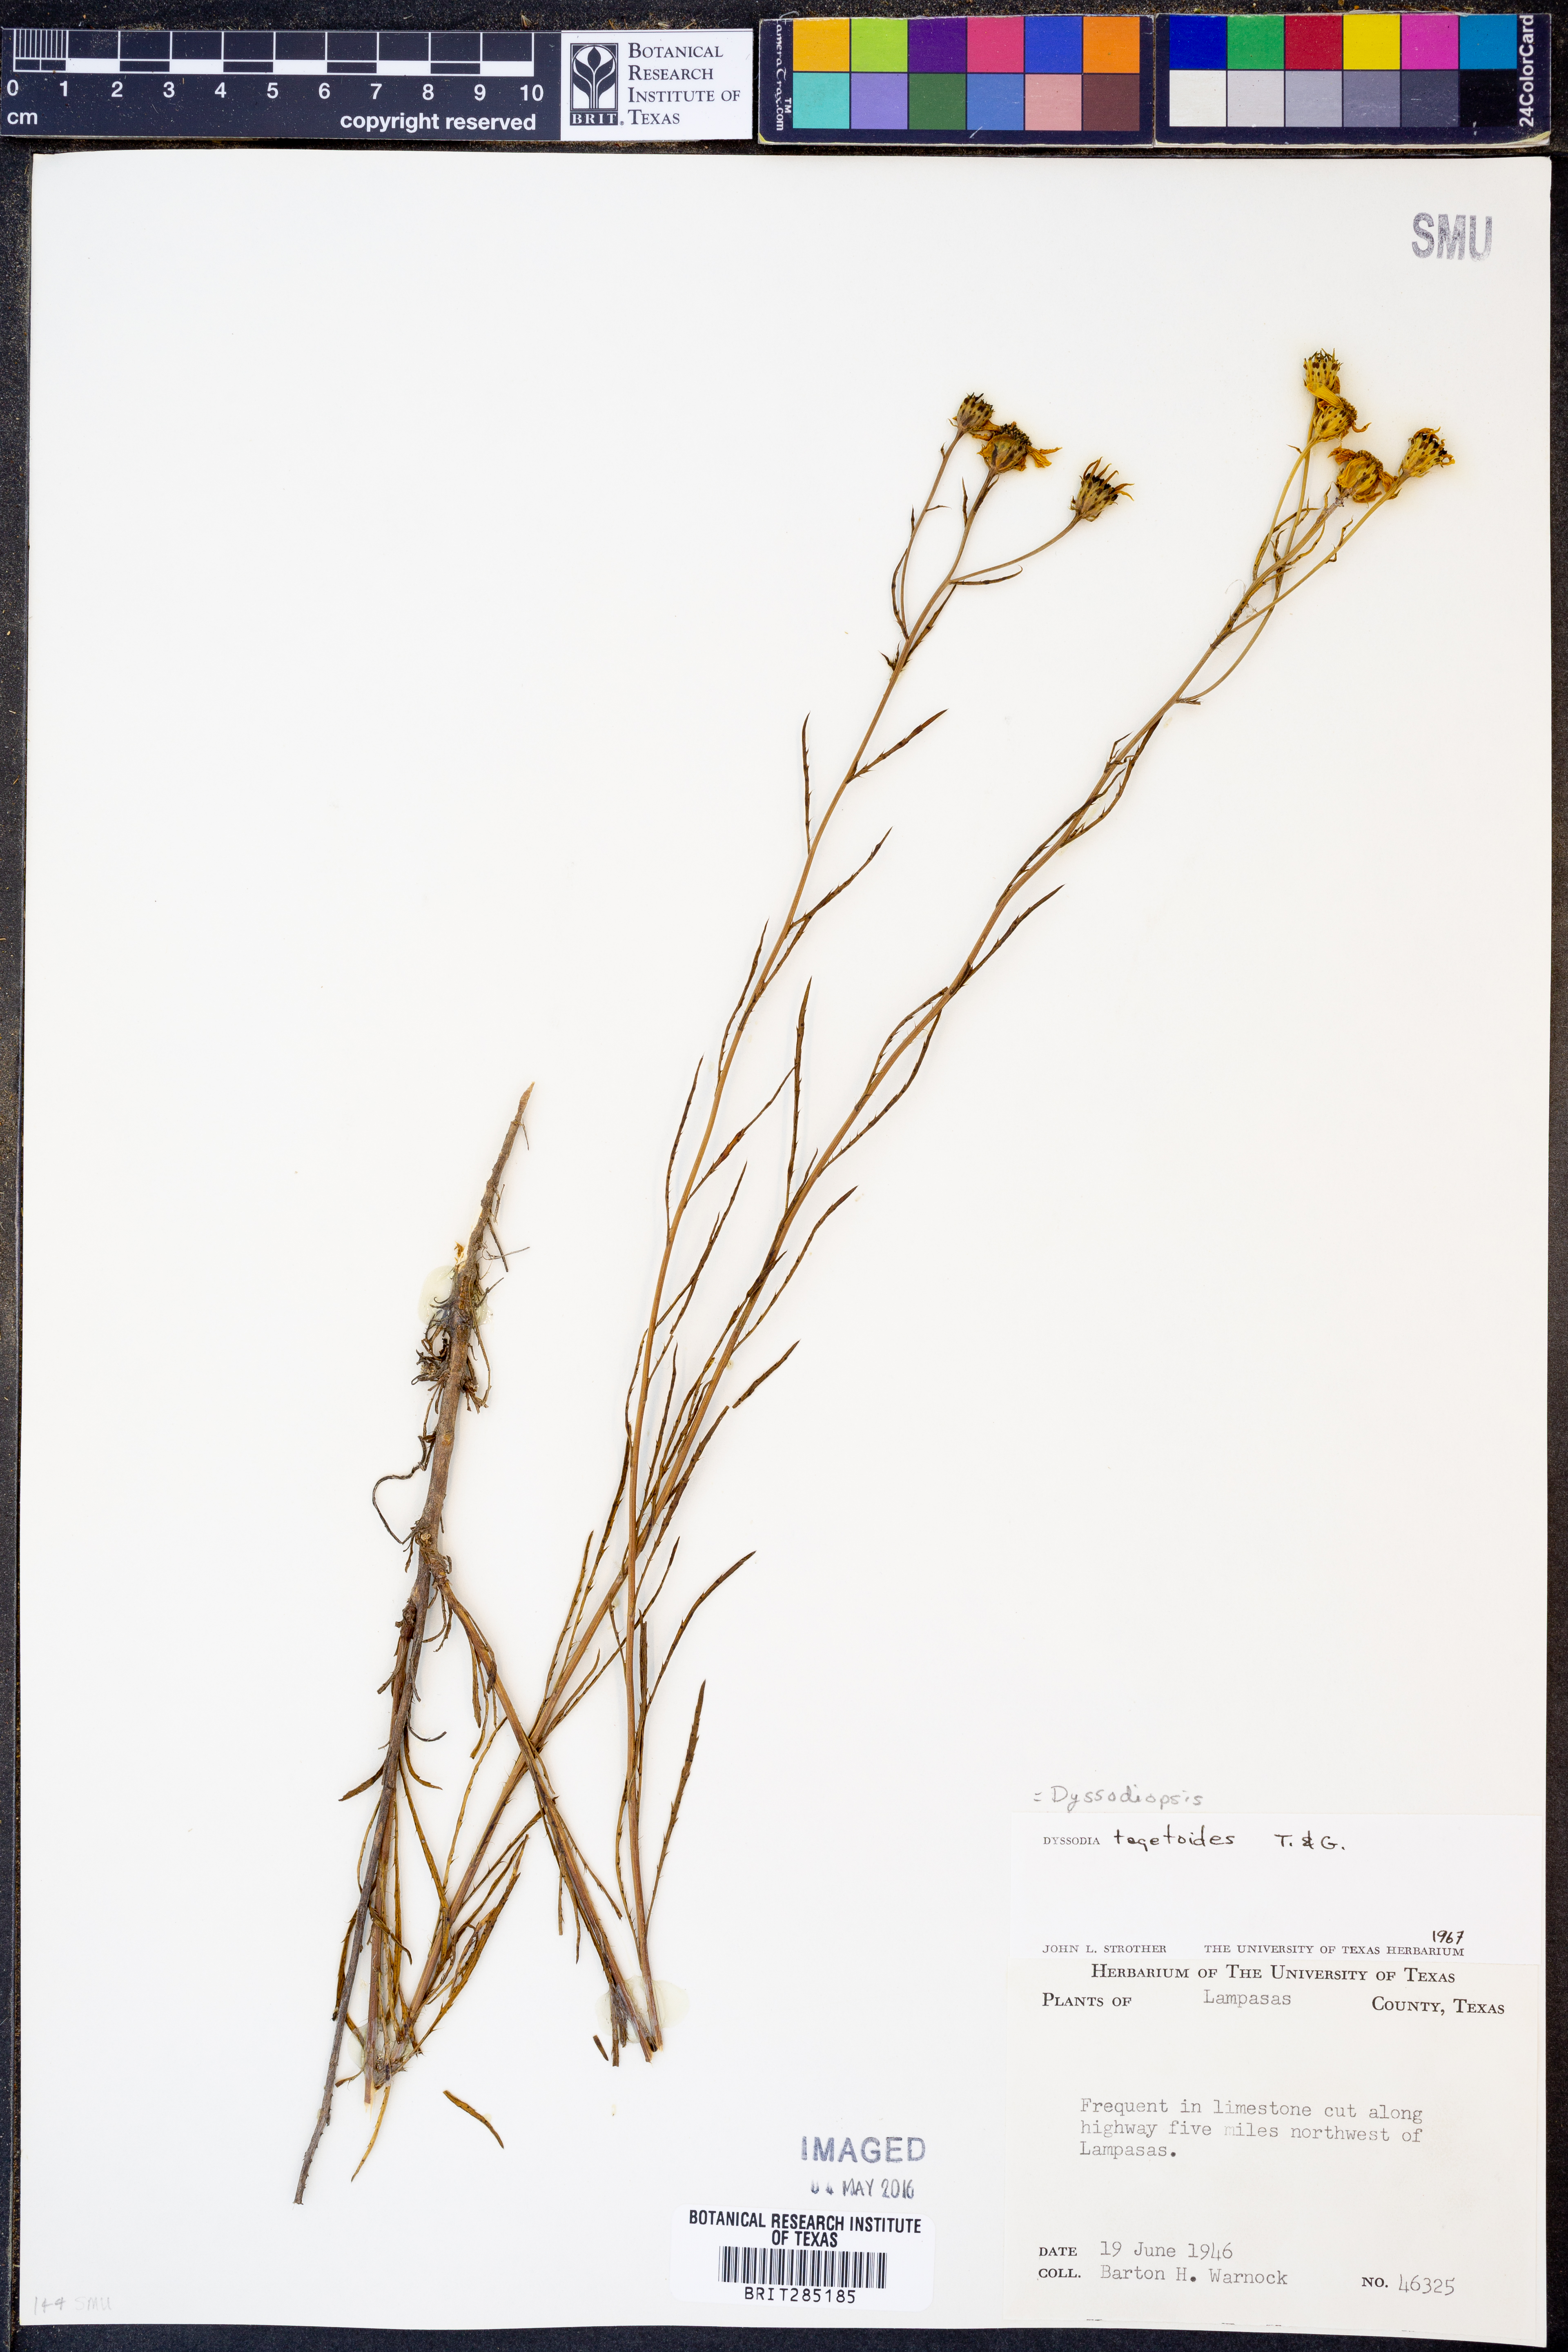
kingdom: Plantae
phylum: Tracheophyta
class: Magnoliopsida
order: Asterales
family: Asteraceae
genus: Dysodiopsis
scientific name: Dysodiopsis tagetoides
